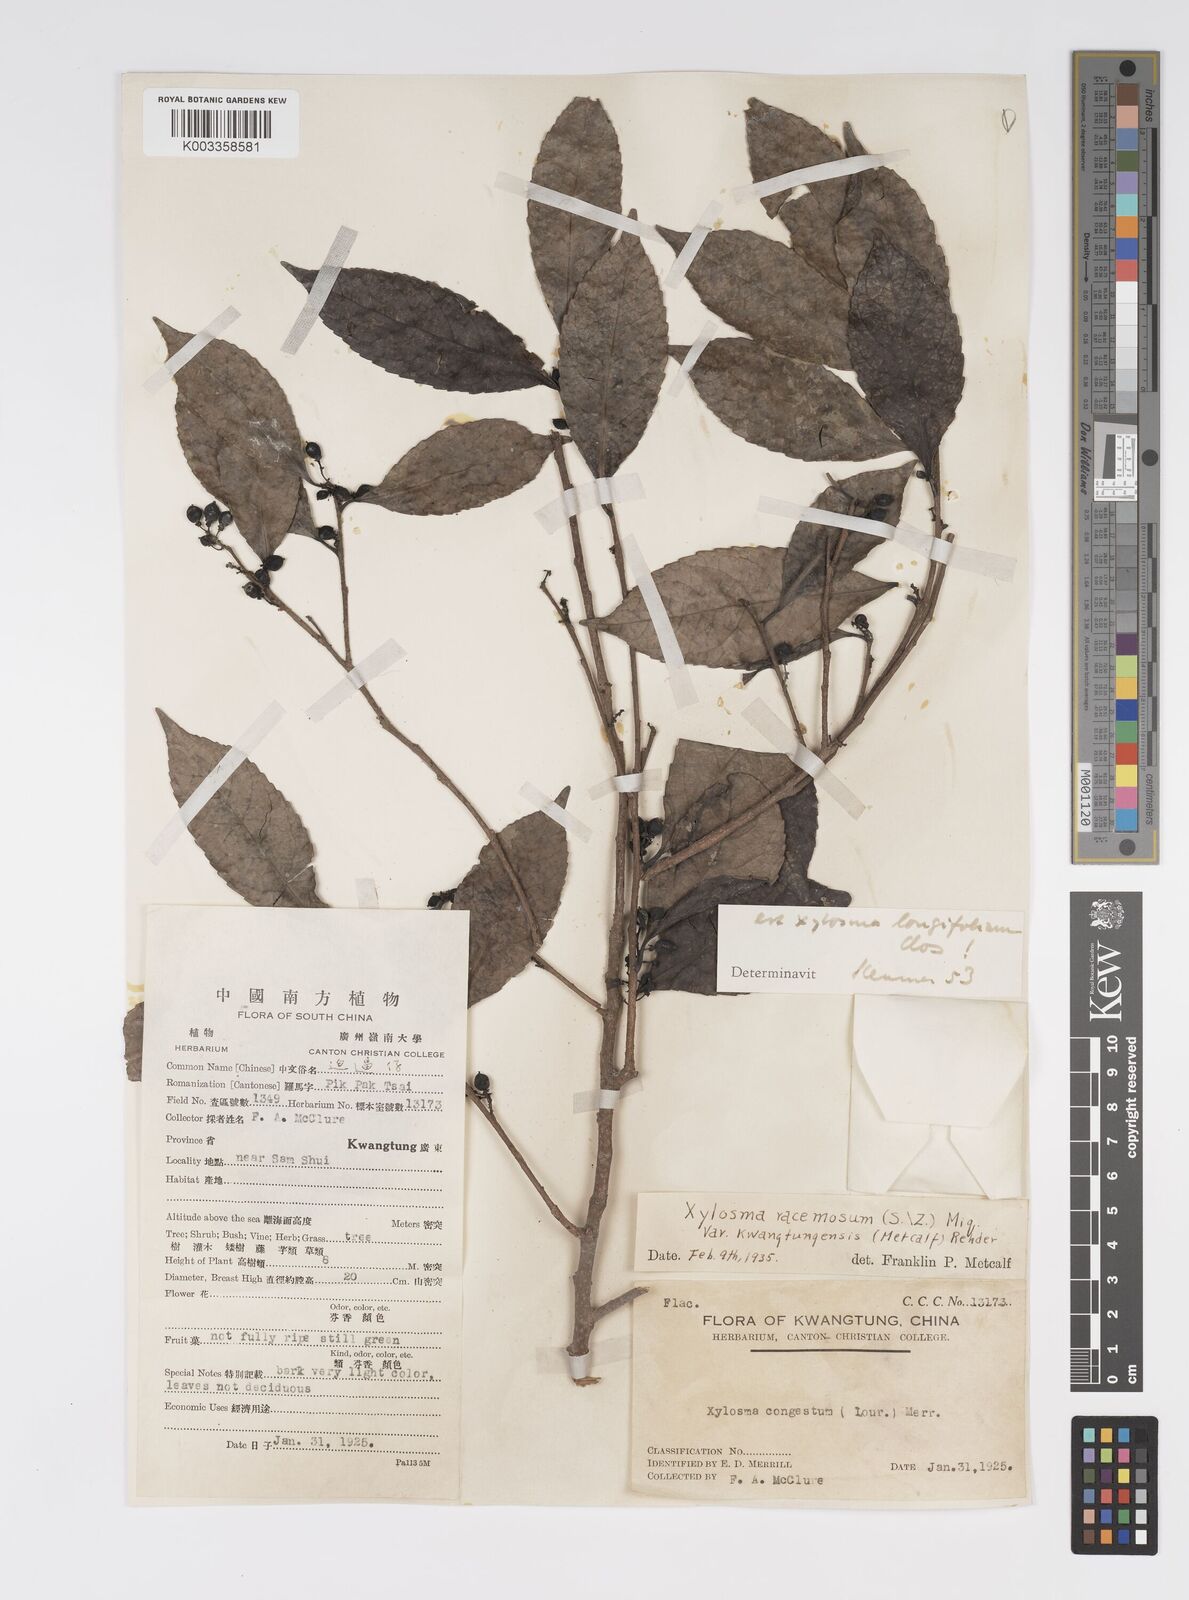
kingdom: Plantae
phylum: Tracheophyta
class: Magnoliopsida
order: Malpighiales
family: Salicaceae
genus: Xylosma
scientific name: Xylosma longifolia
